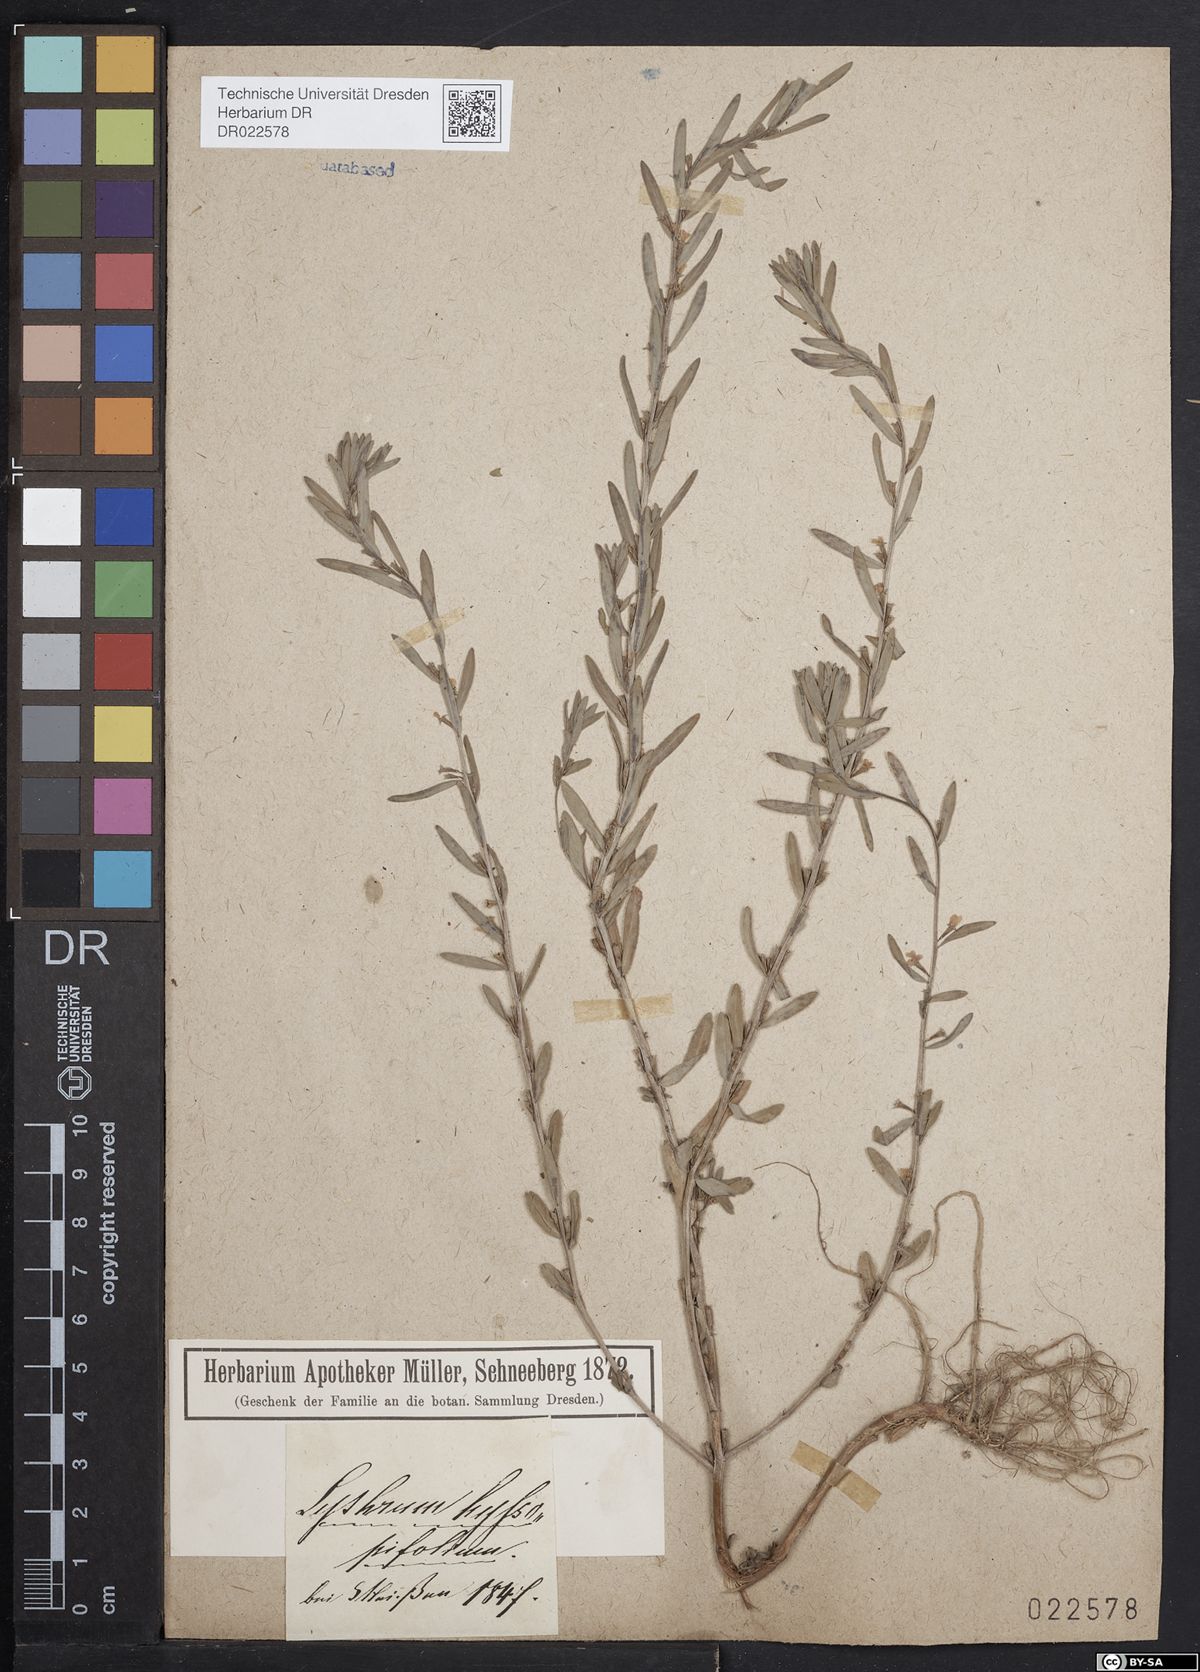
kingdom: Plantae
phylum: Tracheophyta
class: Magnoliopsida
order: Myrtales
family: Lythraceae
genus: Lythrum
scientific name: Lythrum hyssopifolia
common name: Grass-poly
